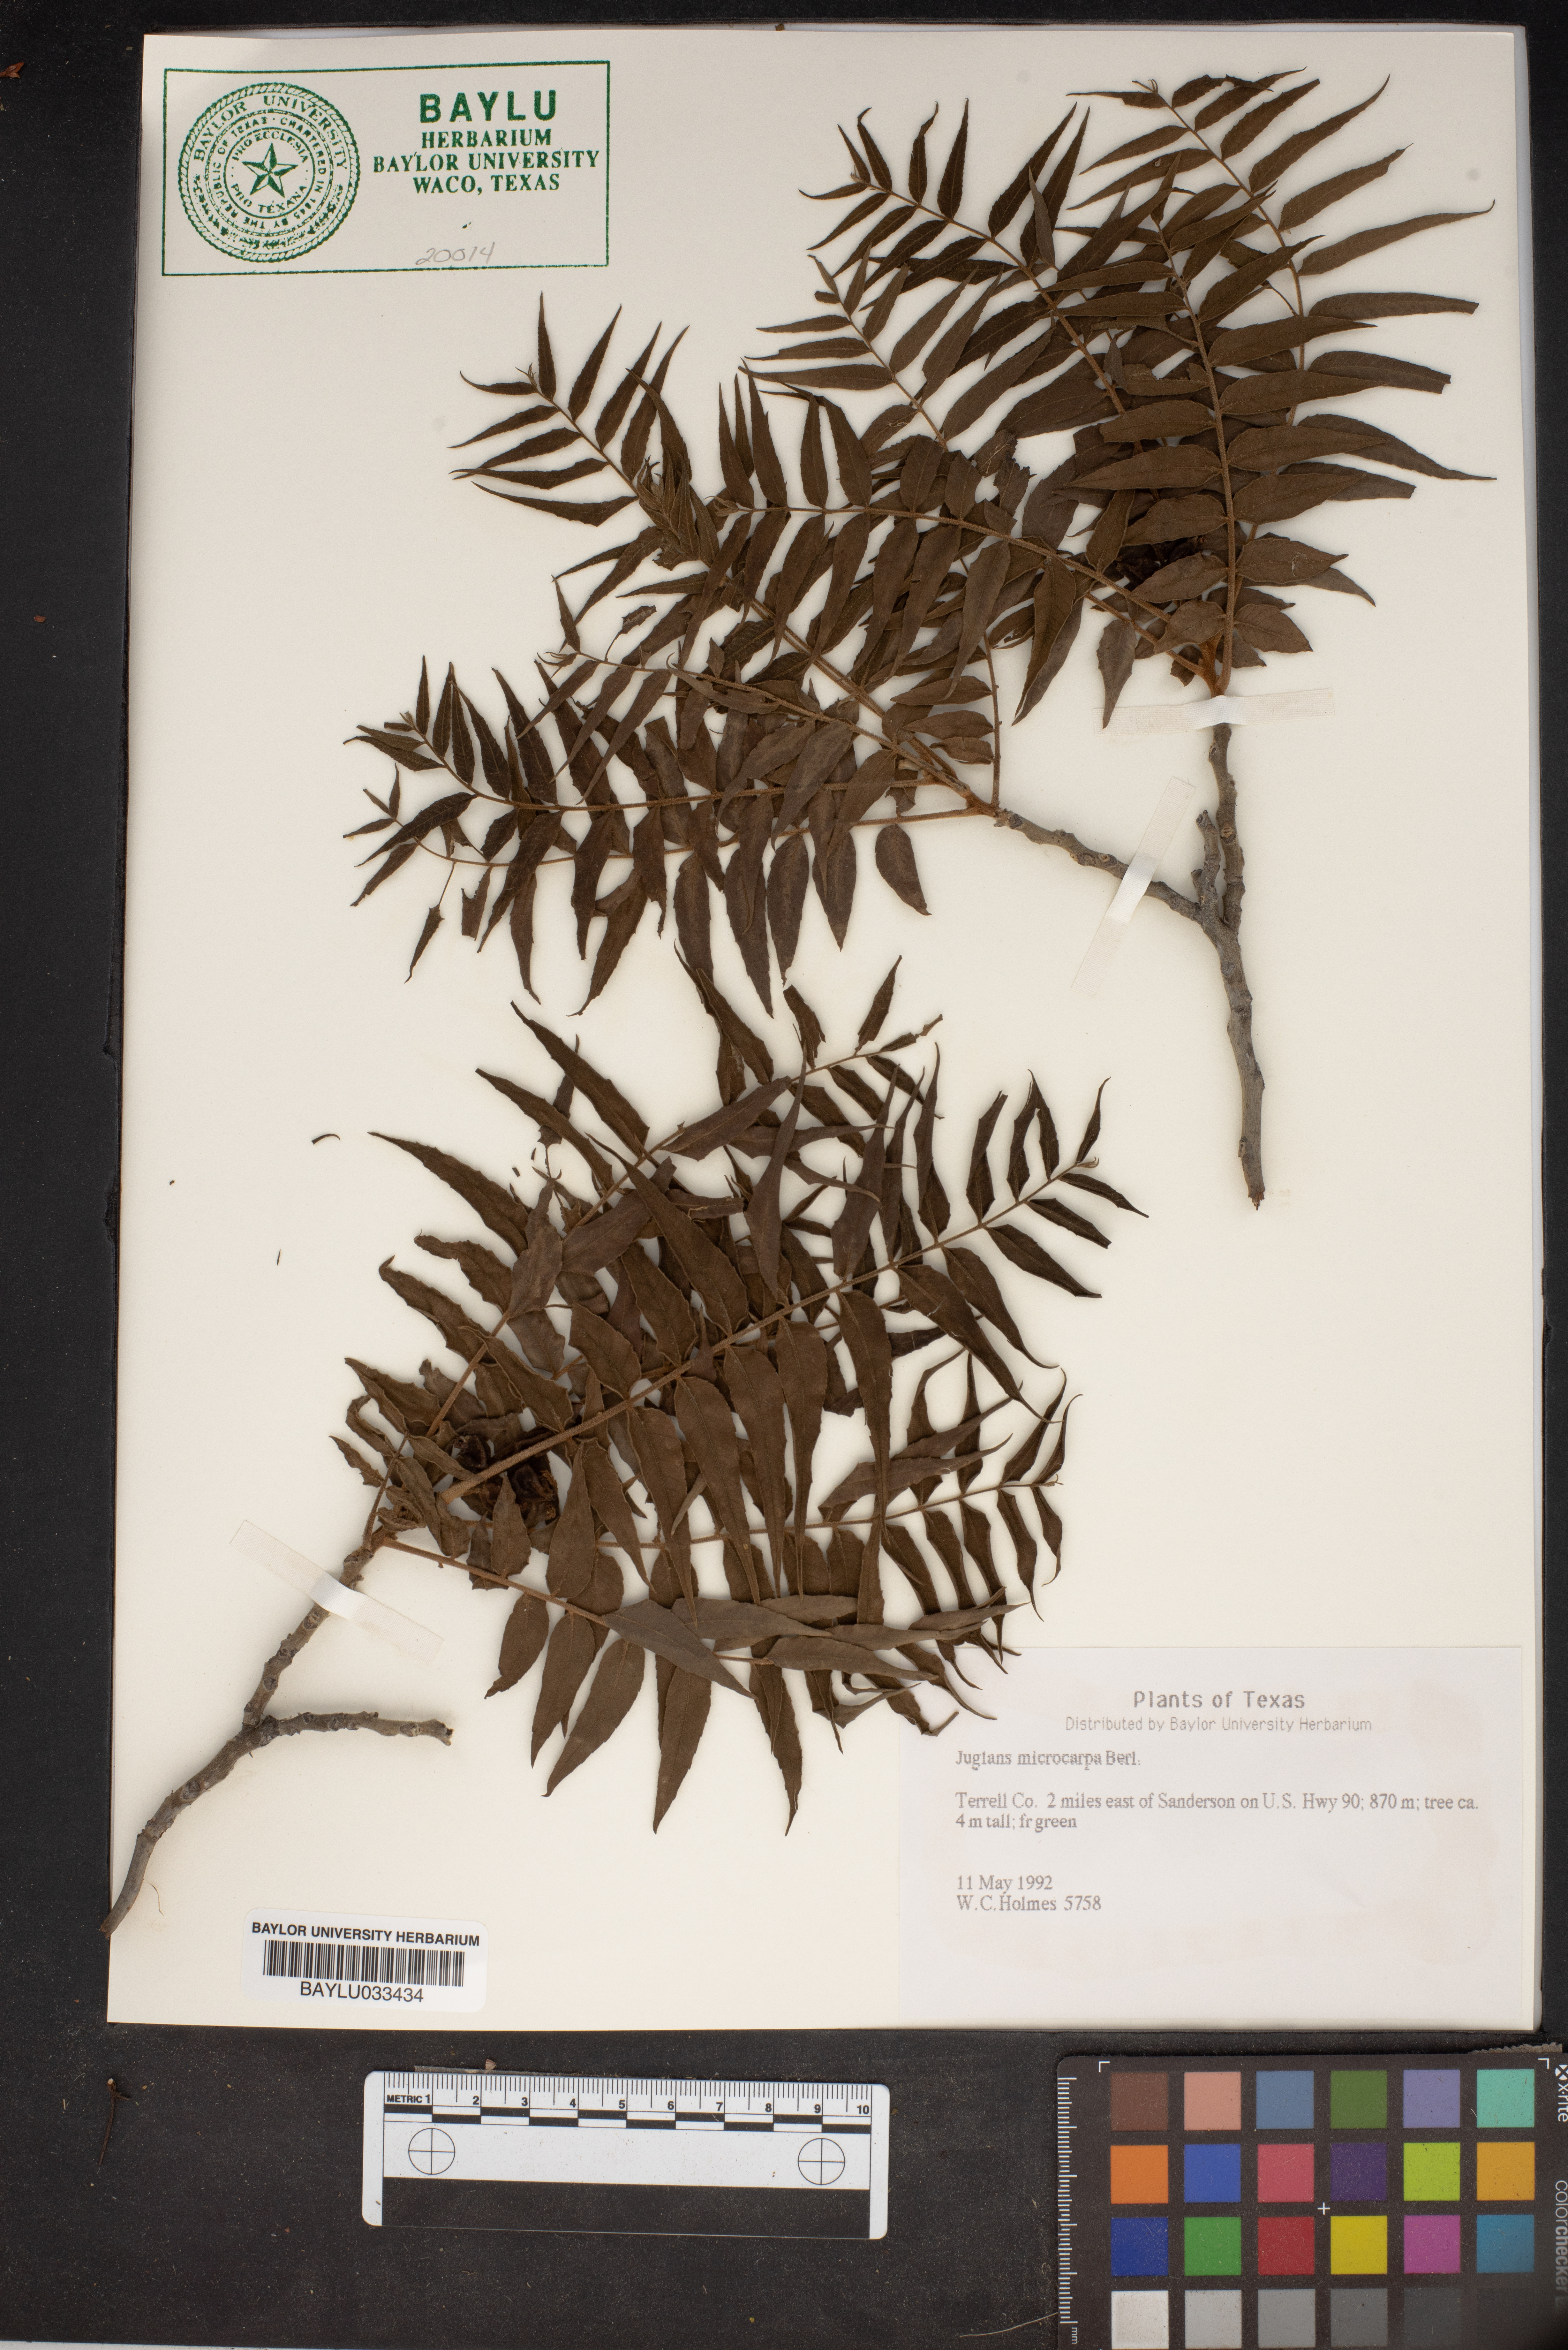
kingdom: Plantae
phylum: Tracheophyta
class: Magnoliopsida
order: Fagales
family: Juglandaceae
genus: Juglans
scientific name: Juglans microcarpa
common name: Texas walnut
